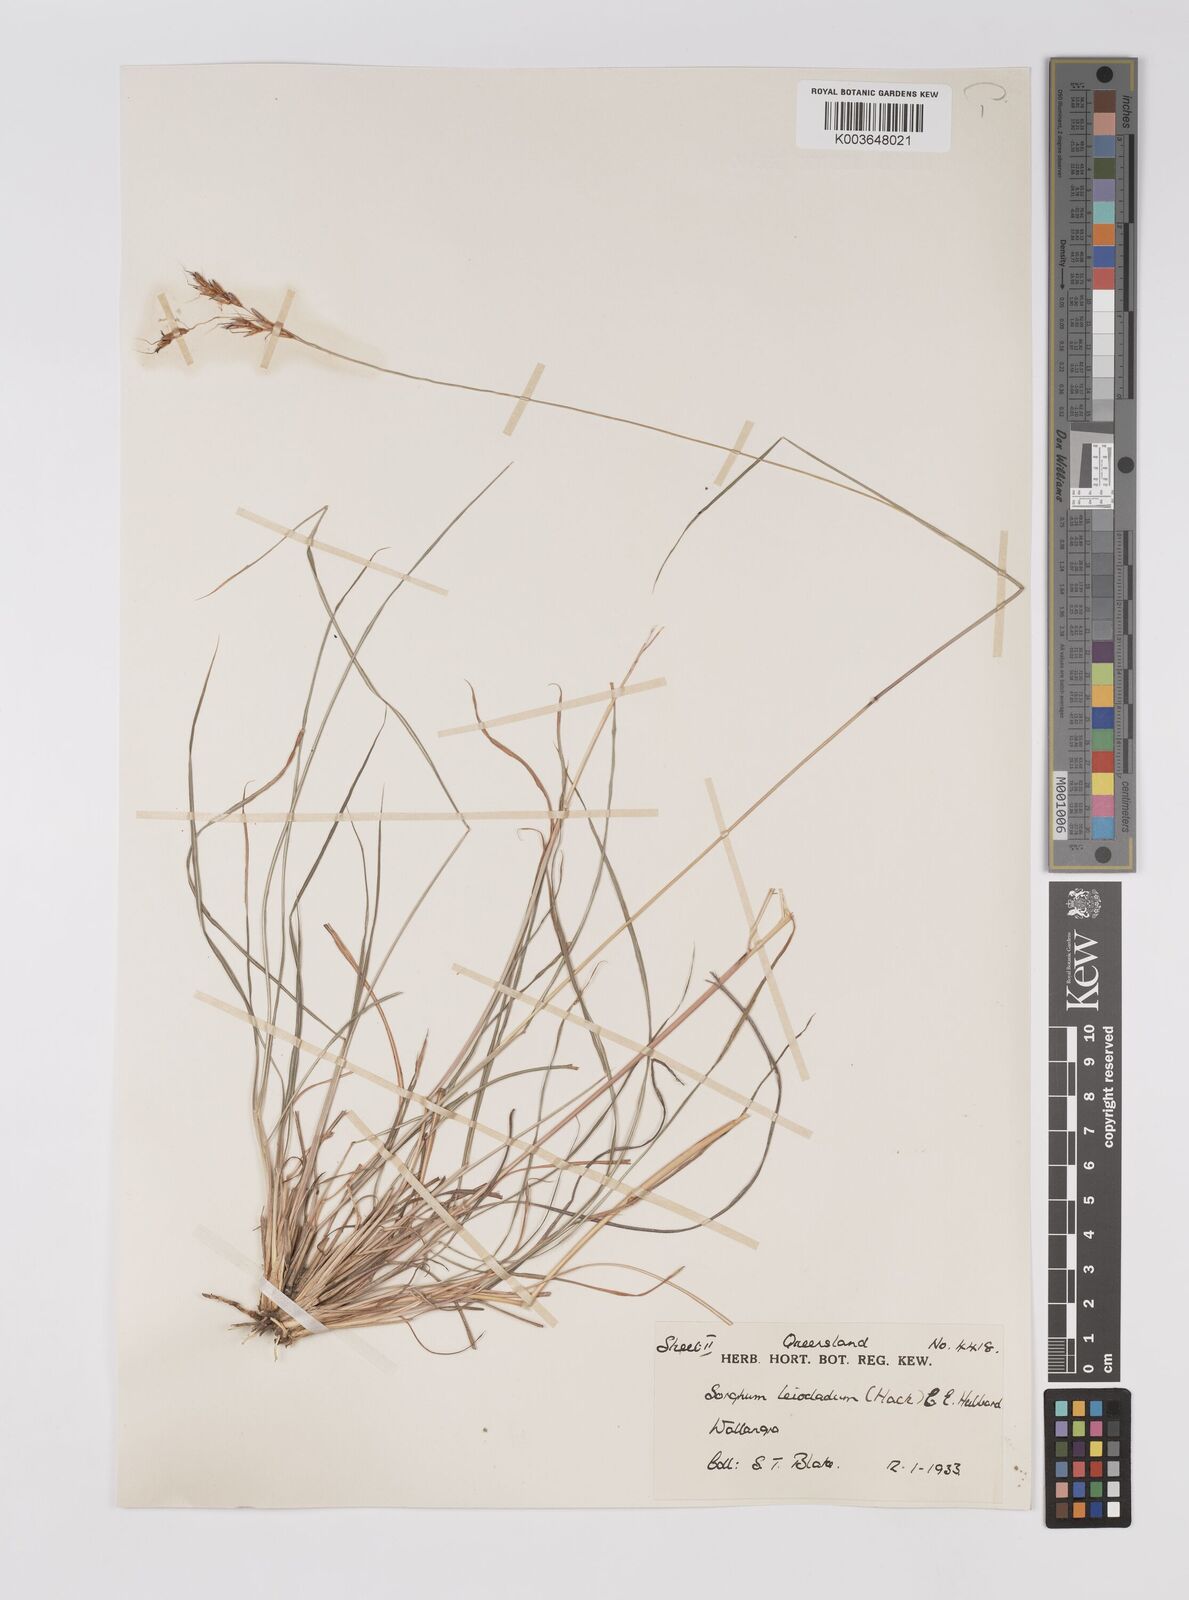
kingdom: Plantae
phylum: Tracheophyta
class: Liliopsida
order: Poales
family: Poaceae
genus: Sarga
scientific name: Sarga leioclada
